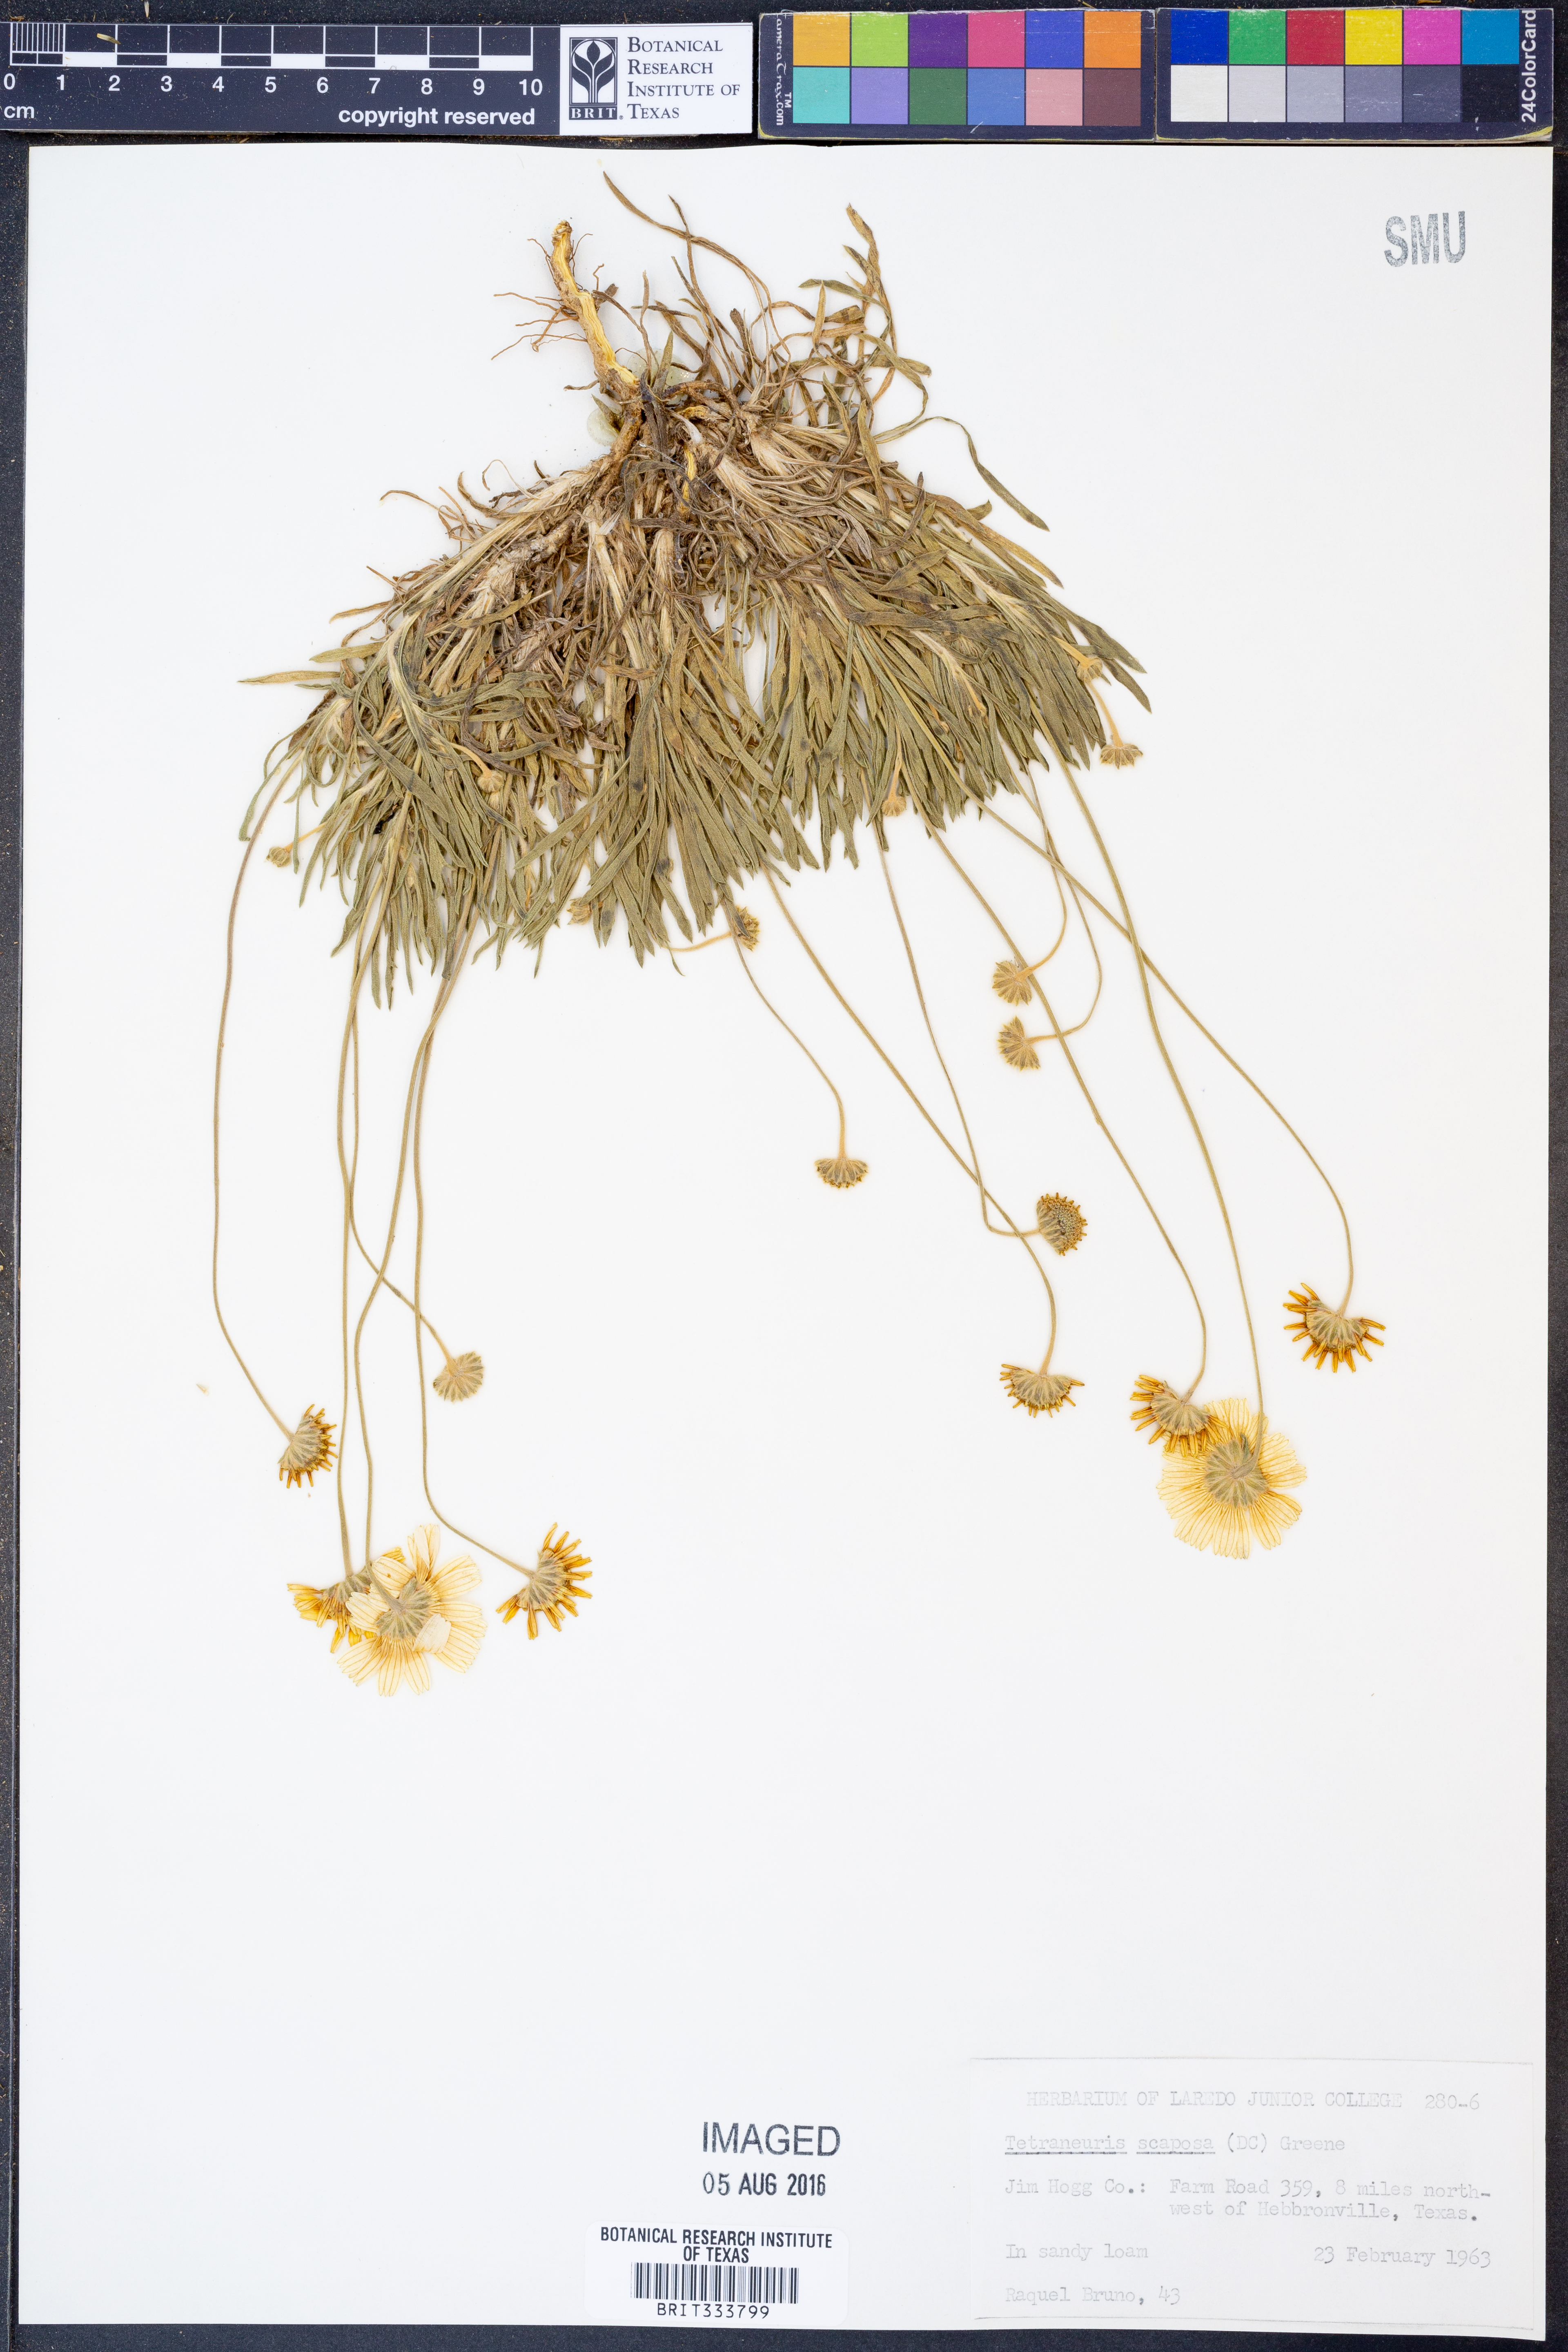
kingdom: Plantae
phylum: Tracheophyta
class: Magnoliopsida
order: Asterales
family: Asteraceae
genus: Tetraneuris
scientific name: Tetraneuris scaposa
